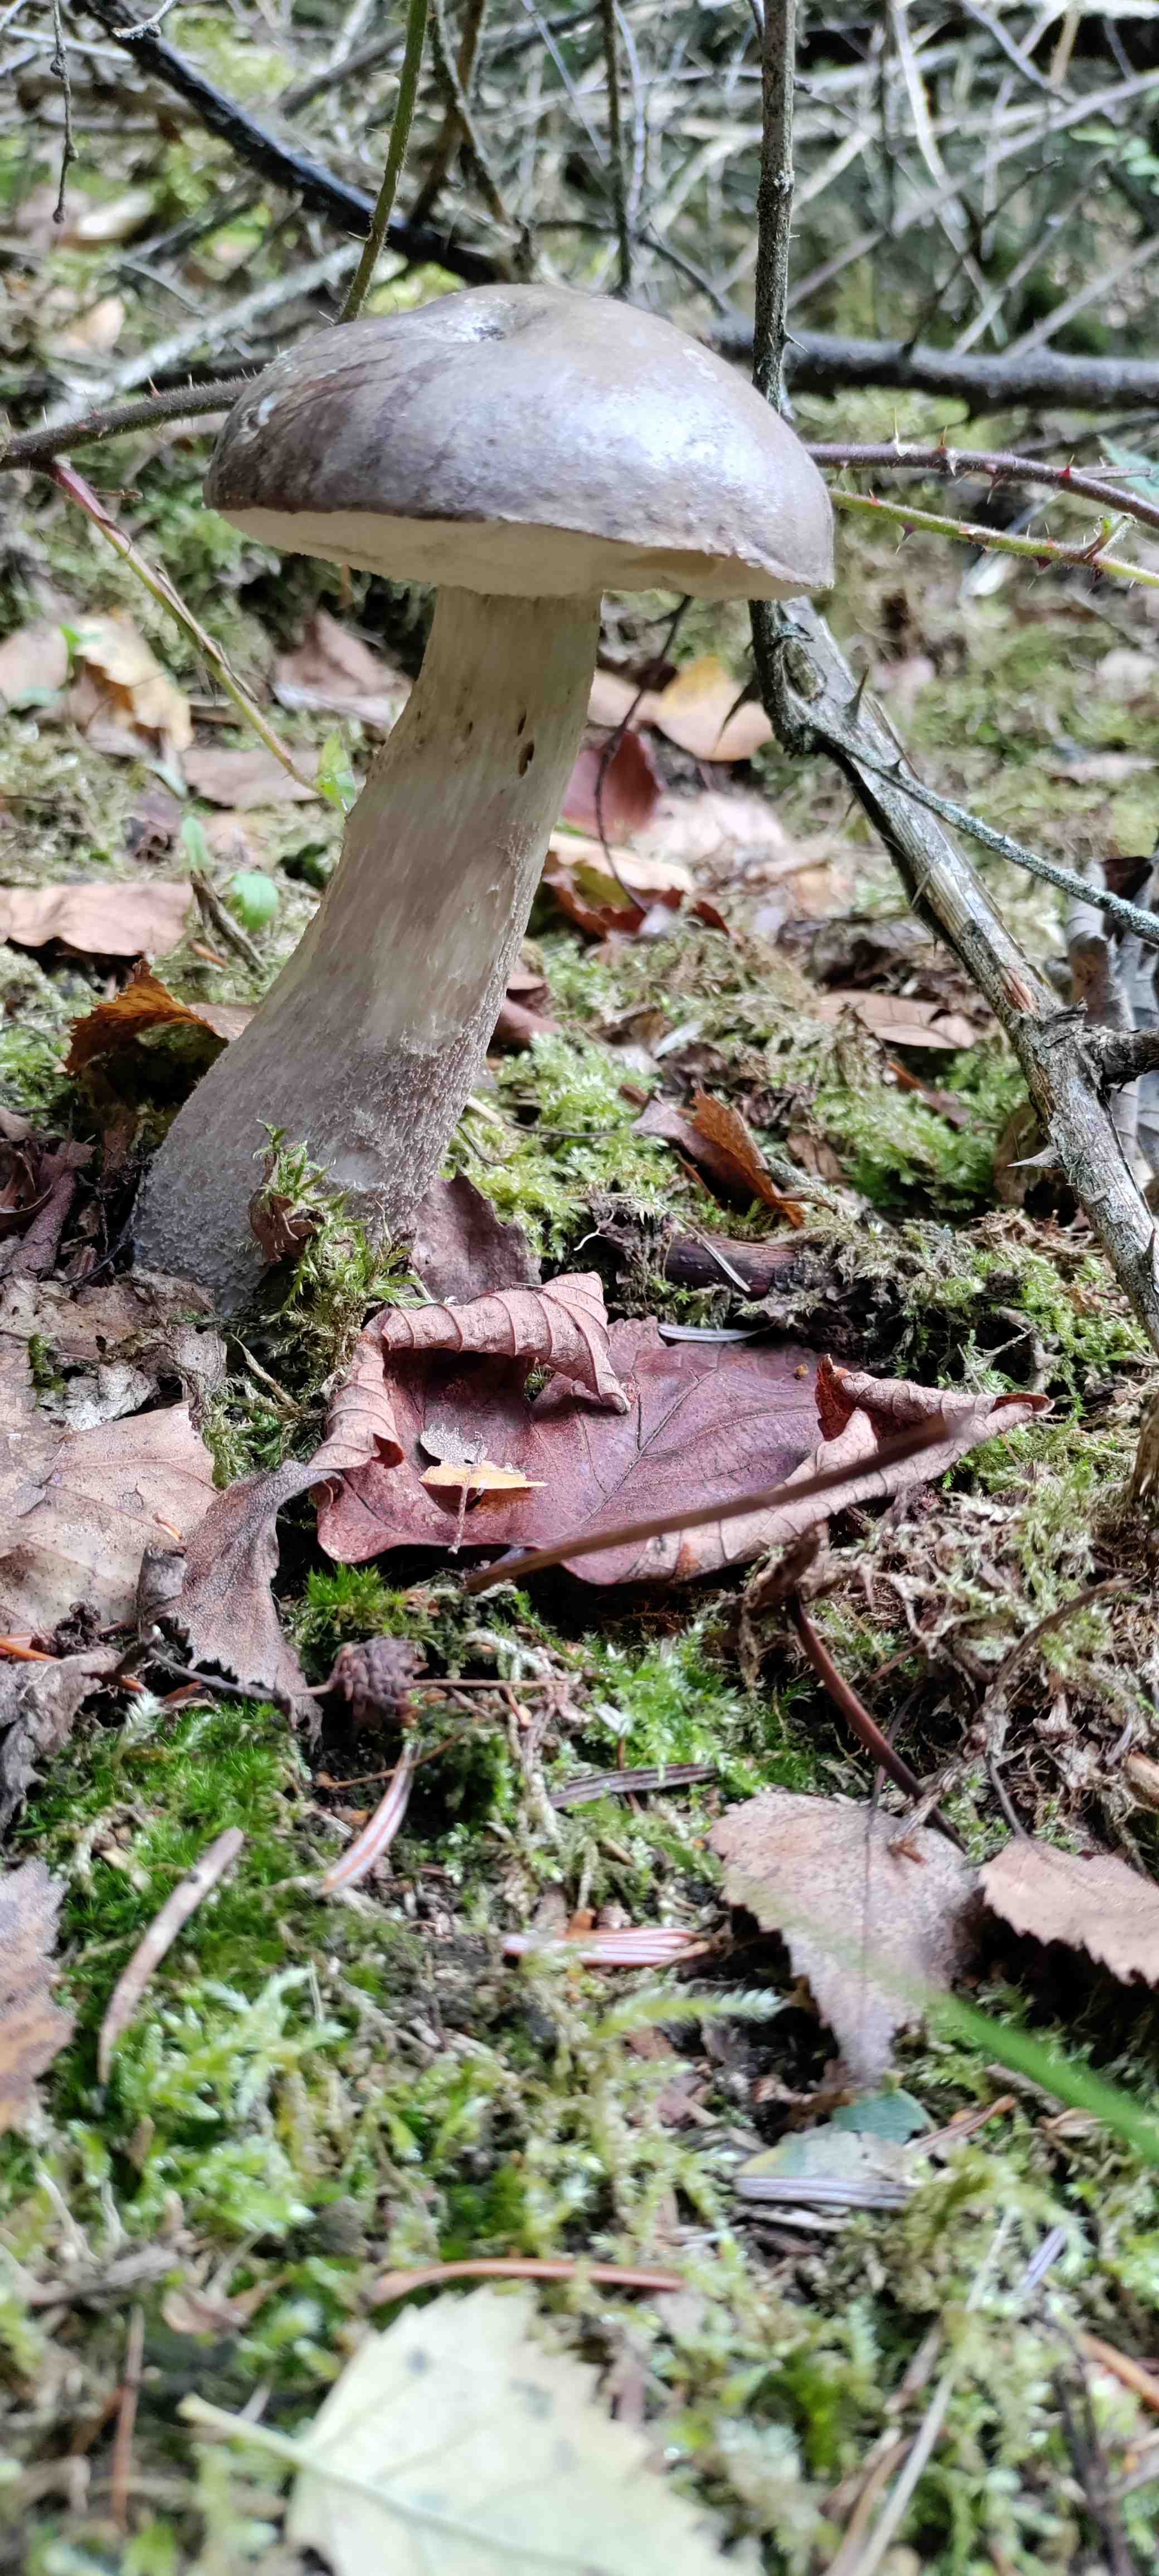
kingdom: Fungi
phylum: Basidiomycota
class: Agaricomycetes
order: Boletales
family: Boletaceae
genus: Leccinum
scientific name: Leccinum
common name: skælrørhat
